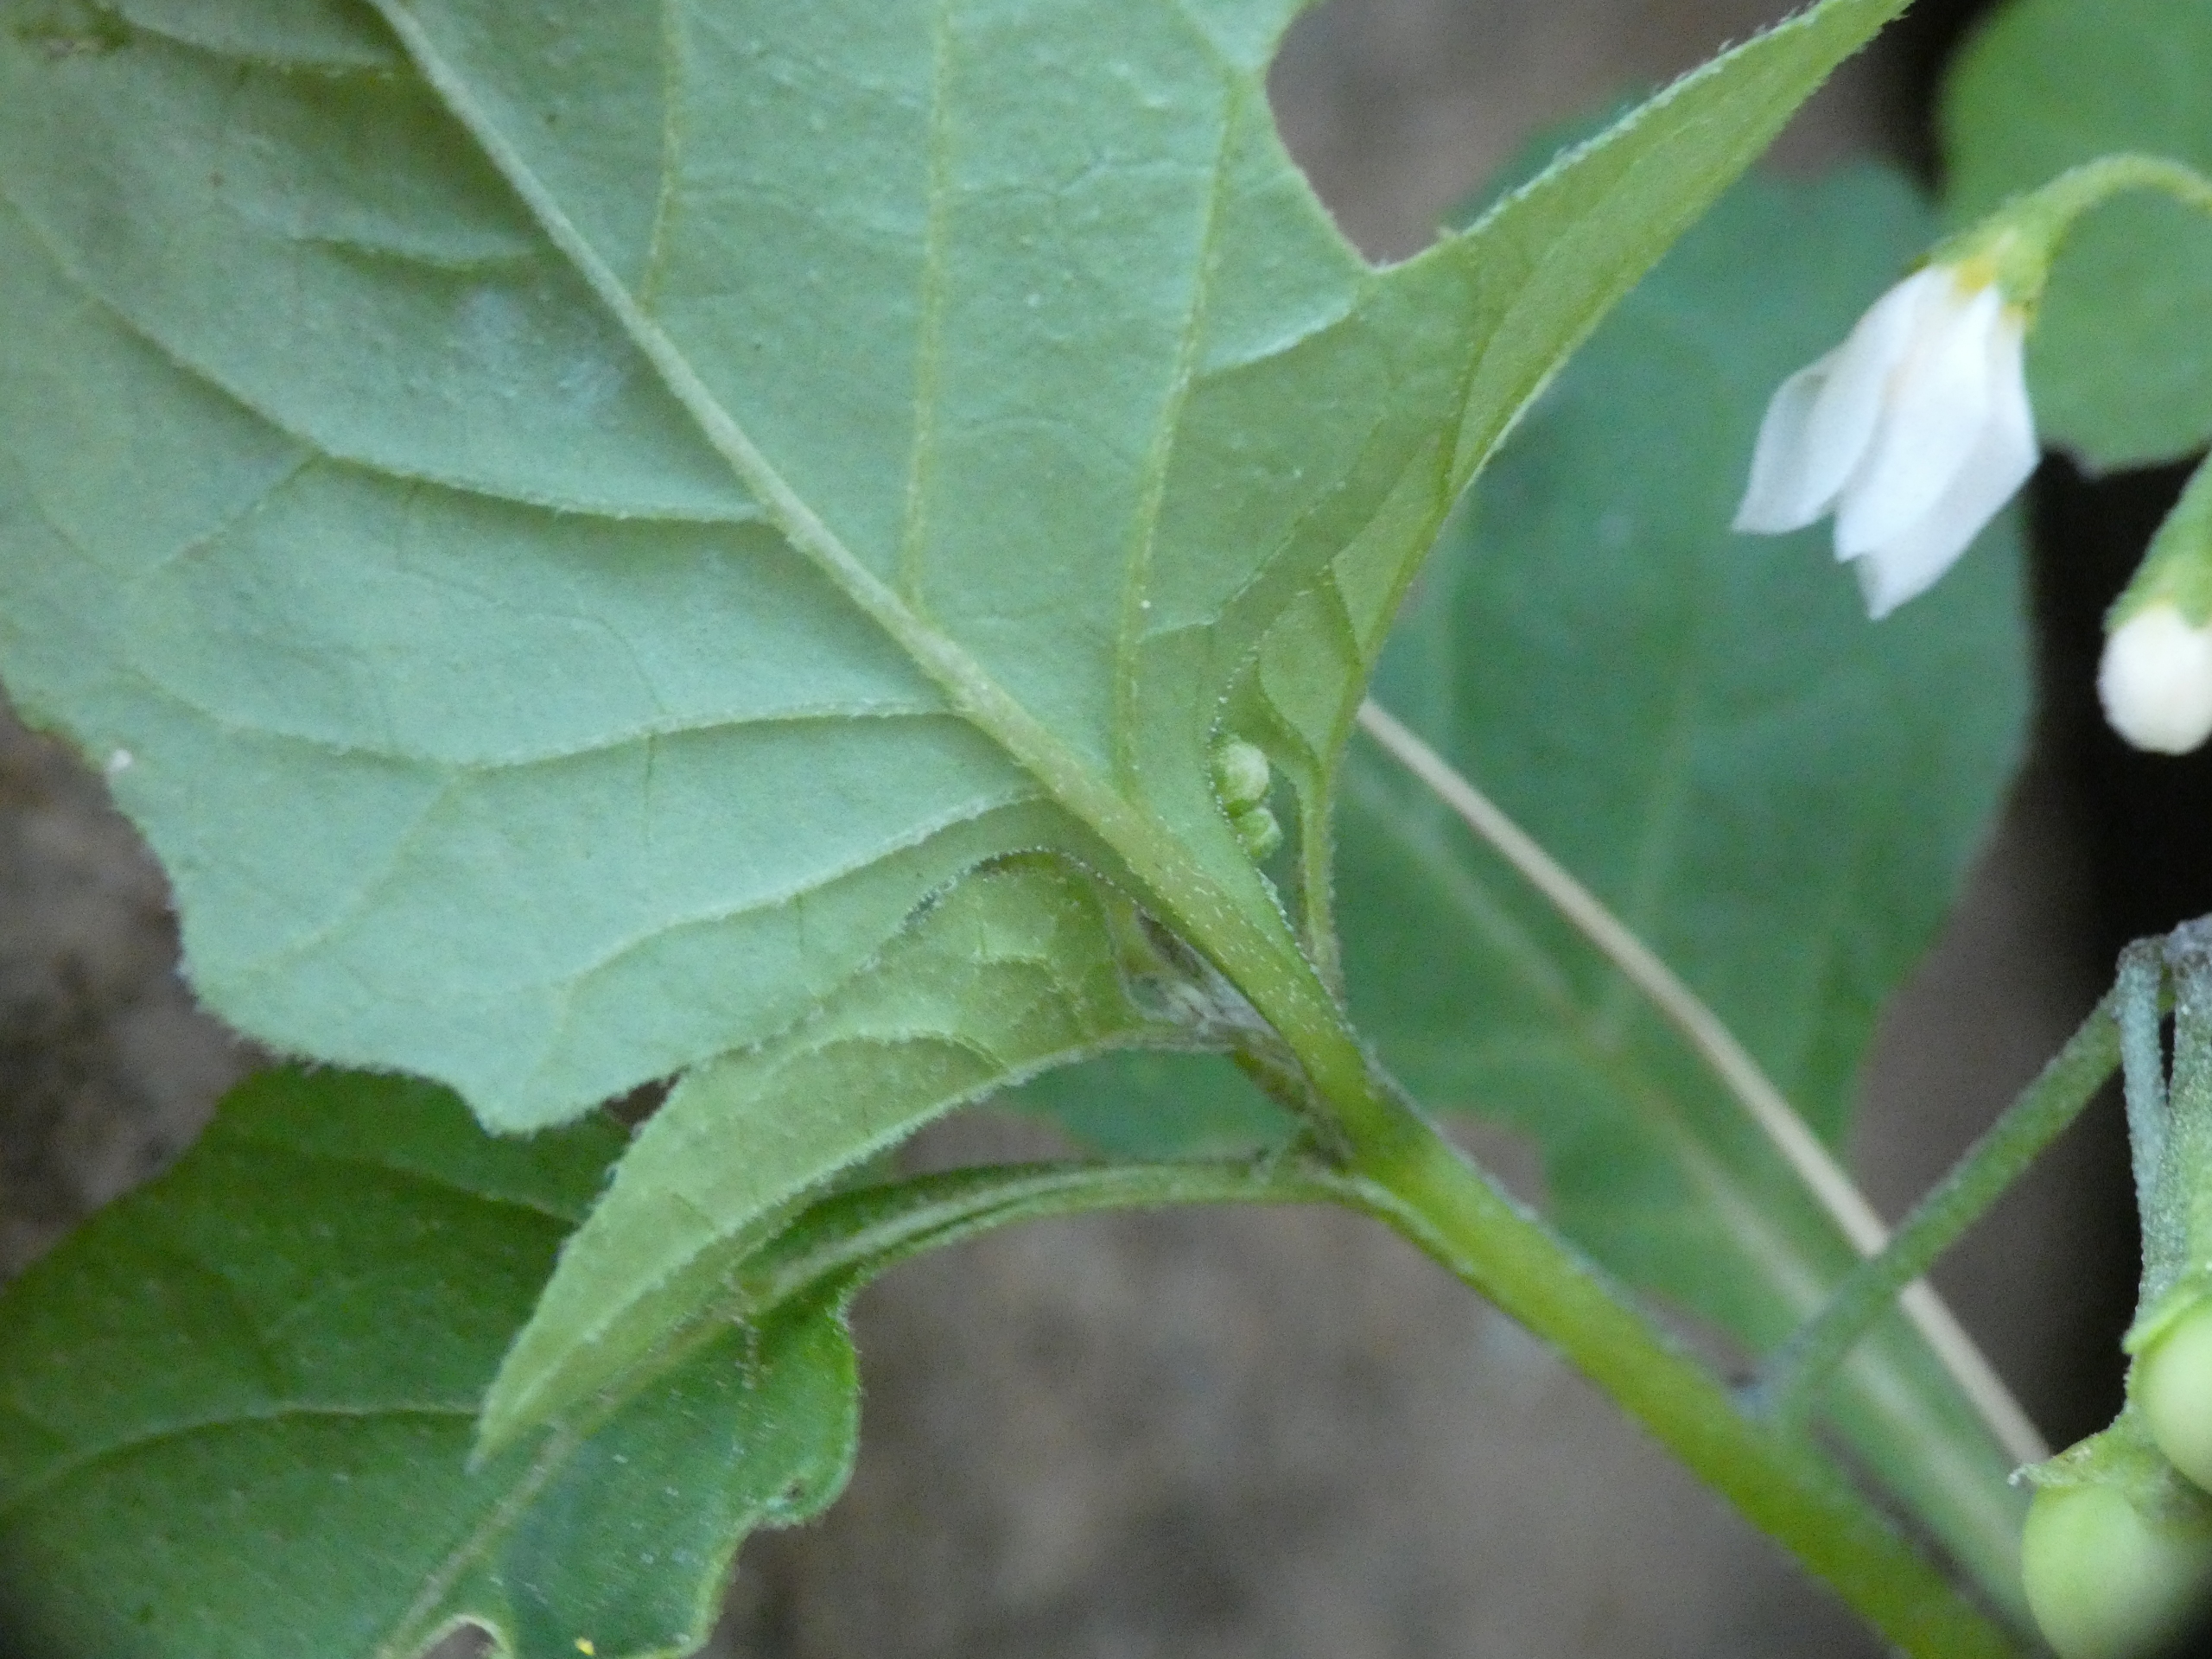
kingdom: Plantae
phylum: Tracheophyta
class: Magnoliopsida
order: Solanales
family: Solanaceae
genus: Solanum
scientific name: Solanum nigrum
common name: Sort natskygge
